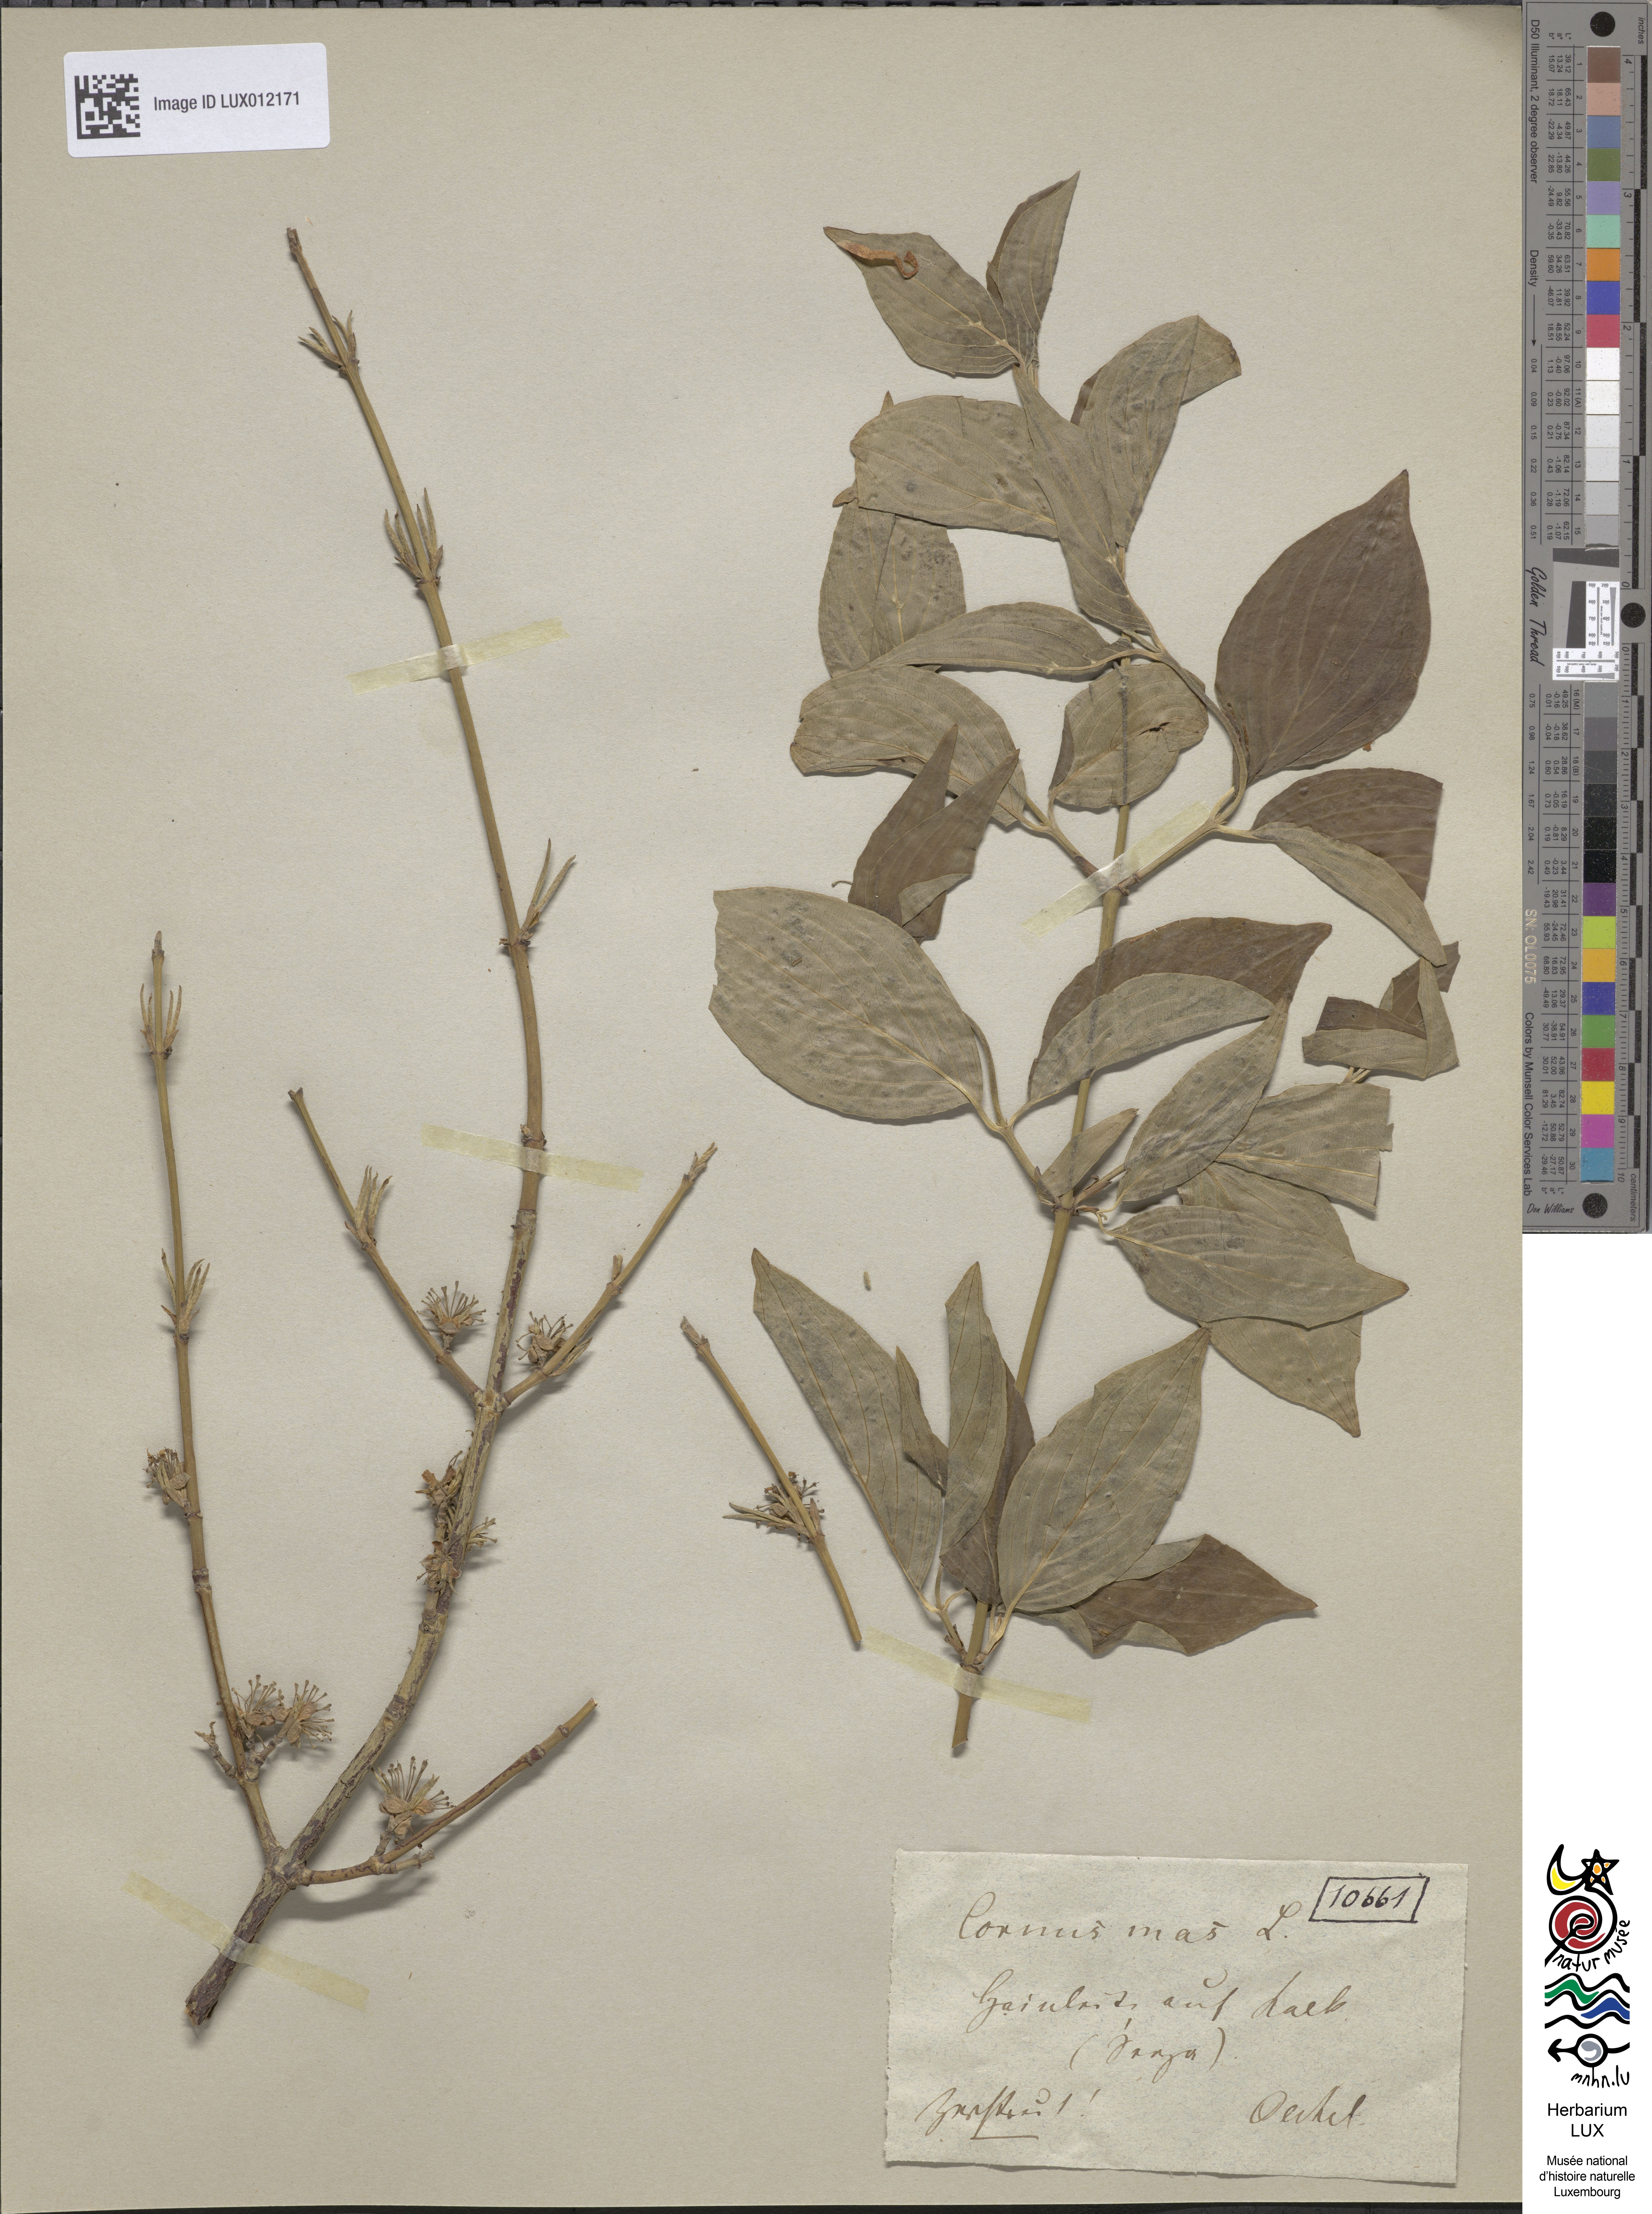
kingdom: Plantae
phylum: Tracheophyta
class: Magnoliopsida
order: Cornales
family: Cornaceae
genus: Cornus
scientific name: Cornus mas
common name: Cornelian-cherry
